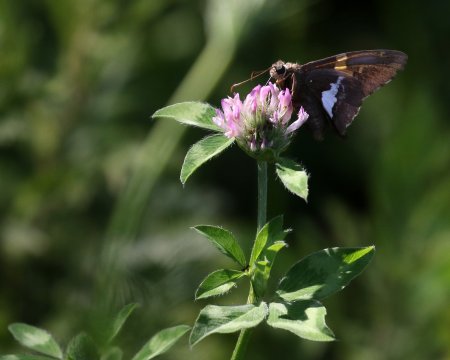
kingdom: Animalia
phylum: Arthropoda
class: Insecta
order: Lepidoptera
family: Hesperiidae
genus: Epargyreus
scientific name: Epargyreus clarus
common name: Silver-spotted Skipper
